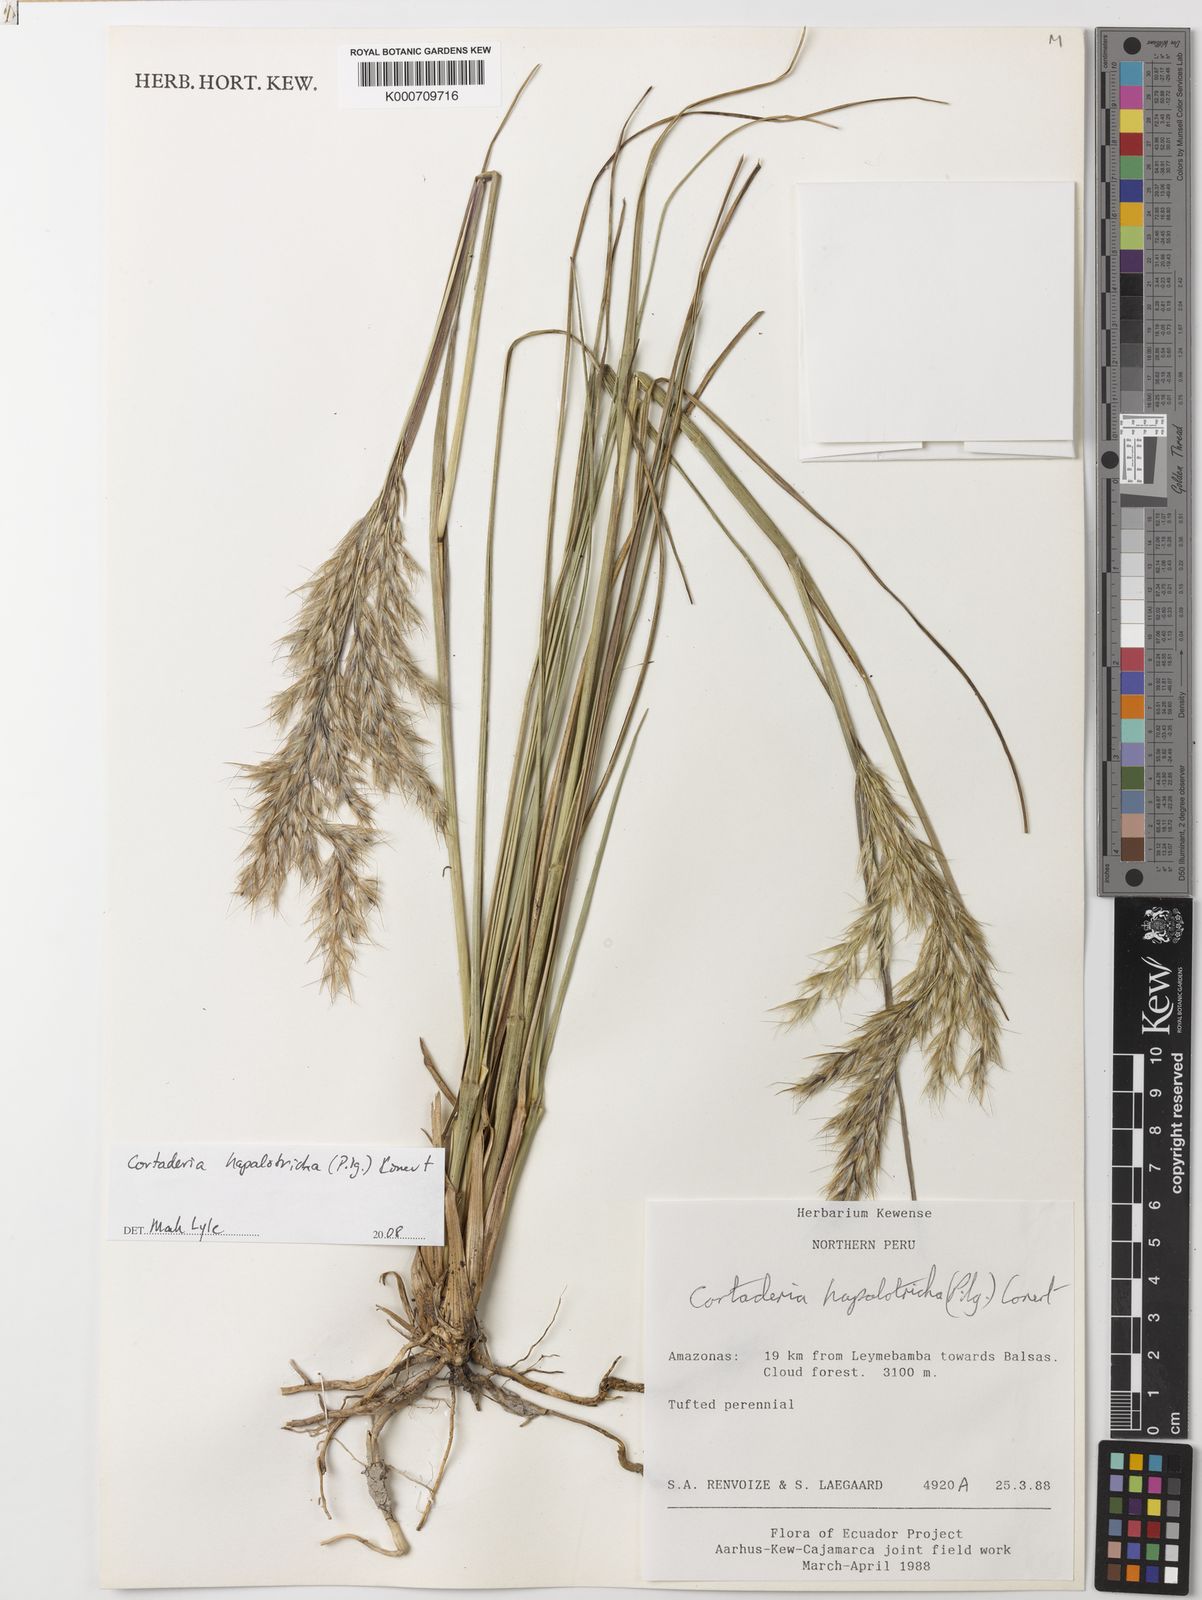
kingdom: Plantae
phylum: Tracheophyta
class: Liliopsida
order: Poales
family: Poaceae
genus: Cortaderia
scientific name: Cortaderia hapalotricha
